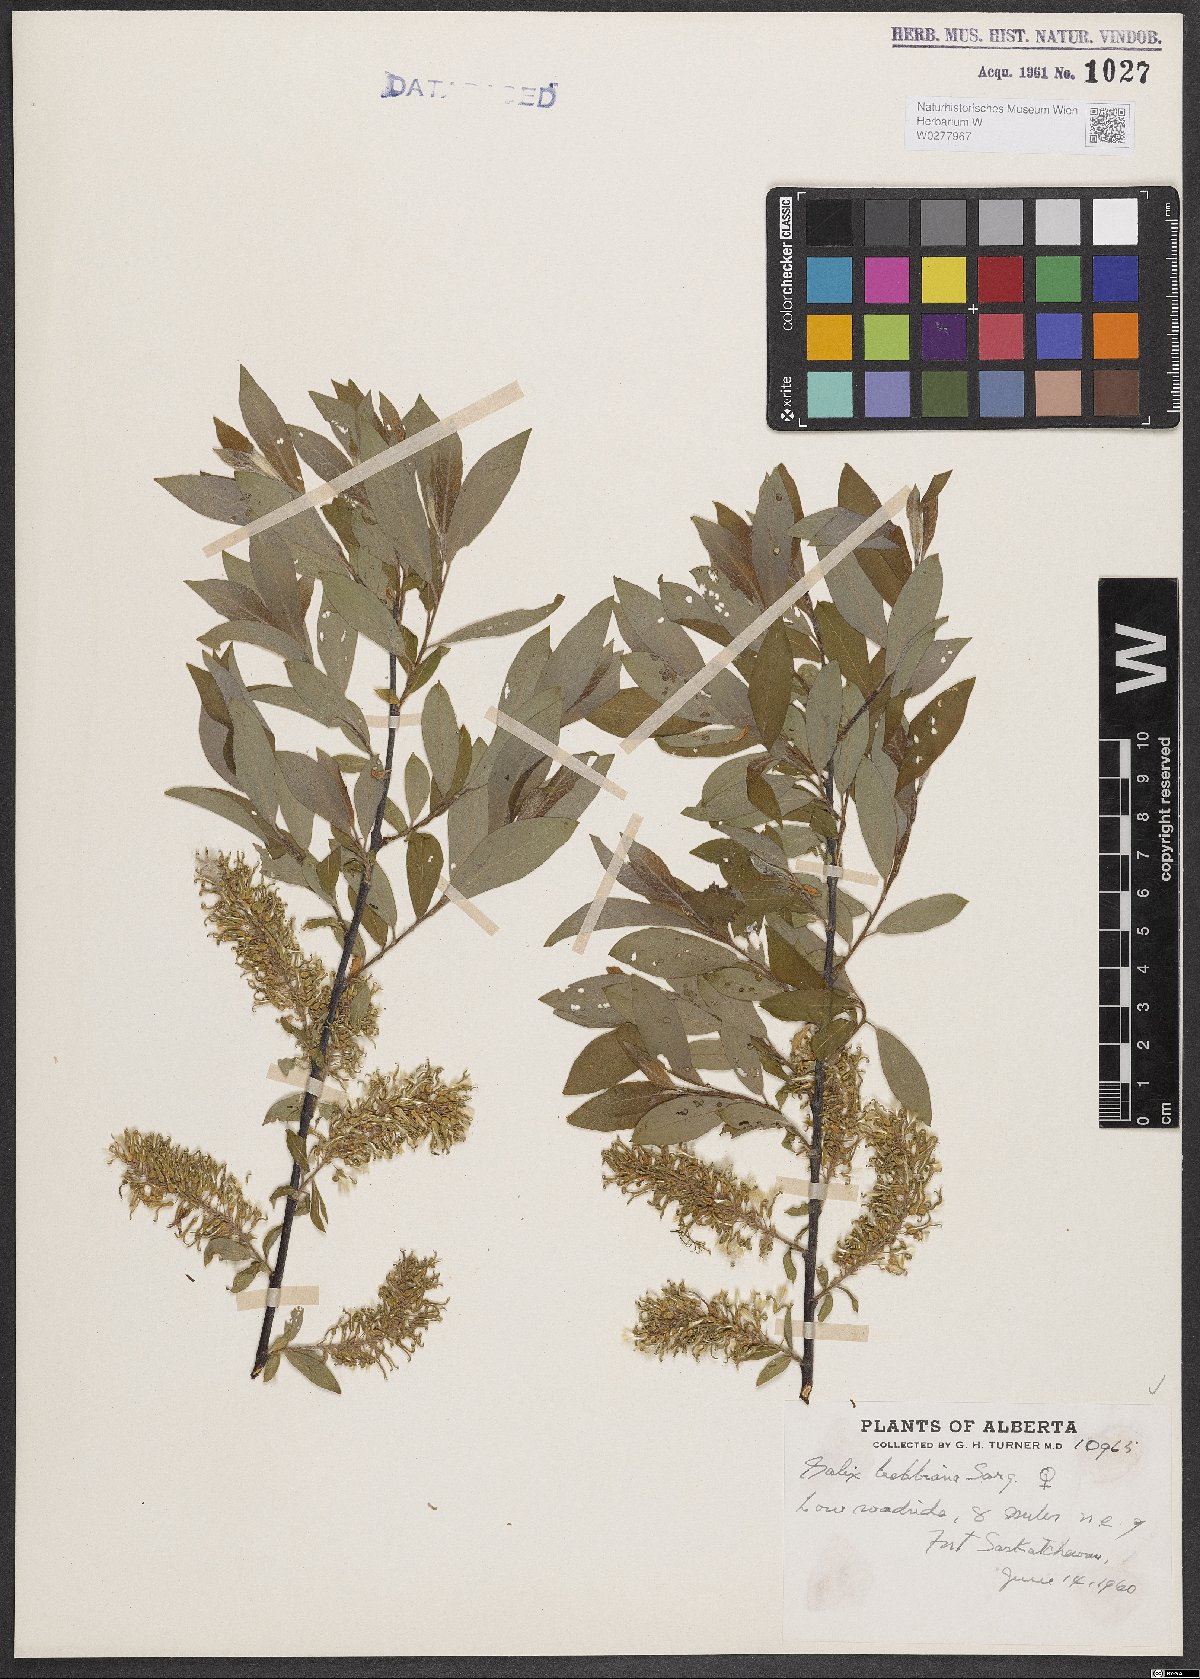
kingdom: Plantae
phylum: Tracheophyta
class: Magnoliopsida
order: Malpighiales
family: Salicaceae
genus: Salix
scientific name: Salix bebbiana
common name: Bebb's willow
